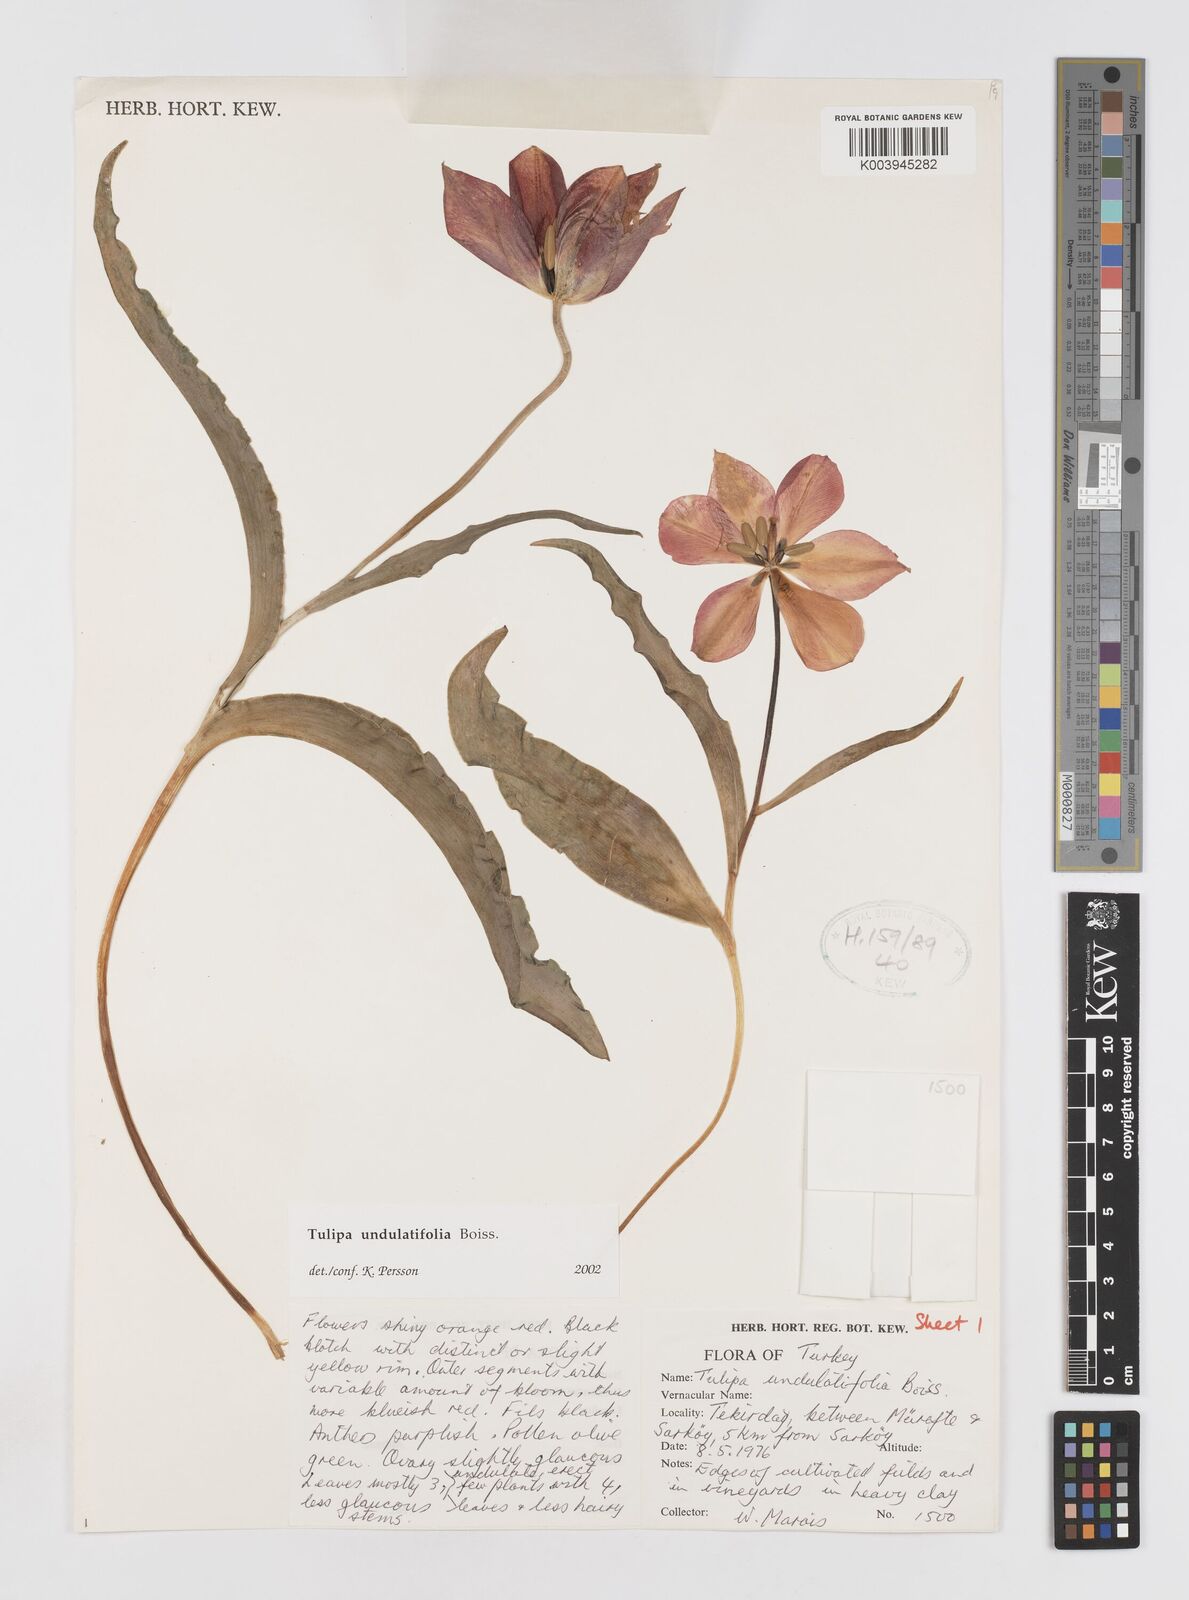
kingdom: Plantae
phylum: Tracheophyta
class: Liliopsida
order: Liliales
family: Liliaceae
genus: Tulipa
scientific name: Tulipa undulatifolia
